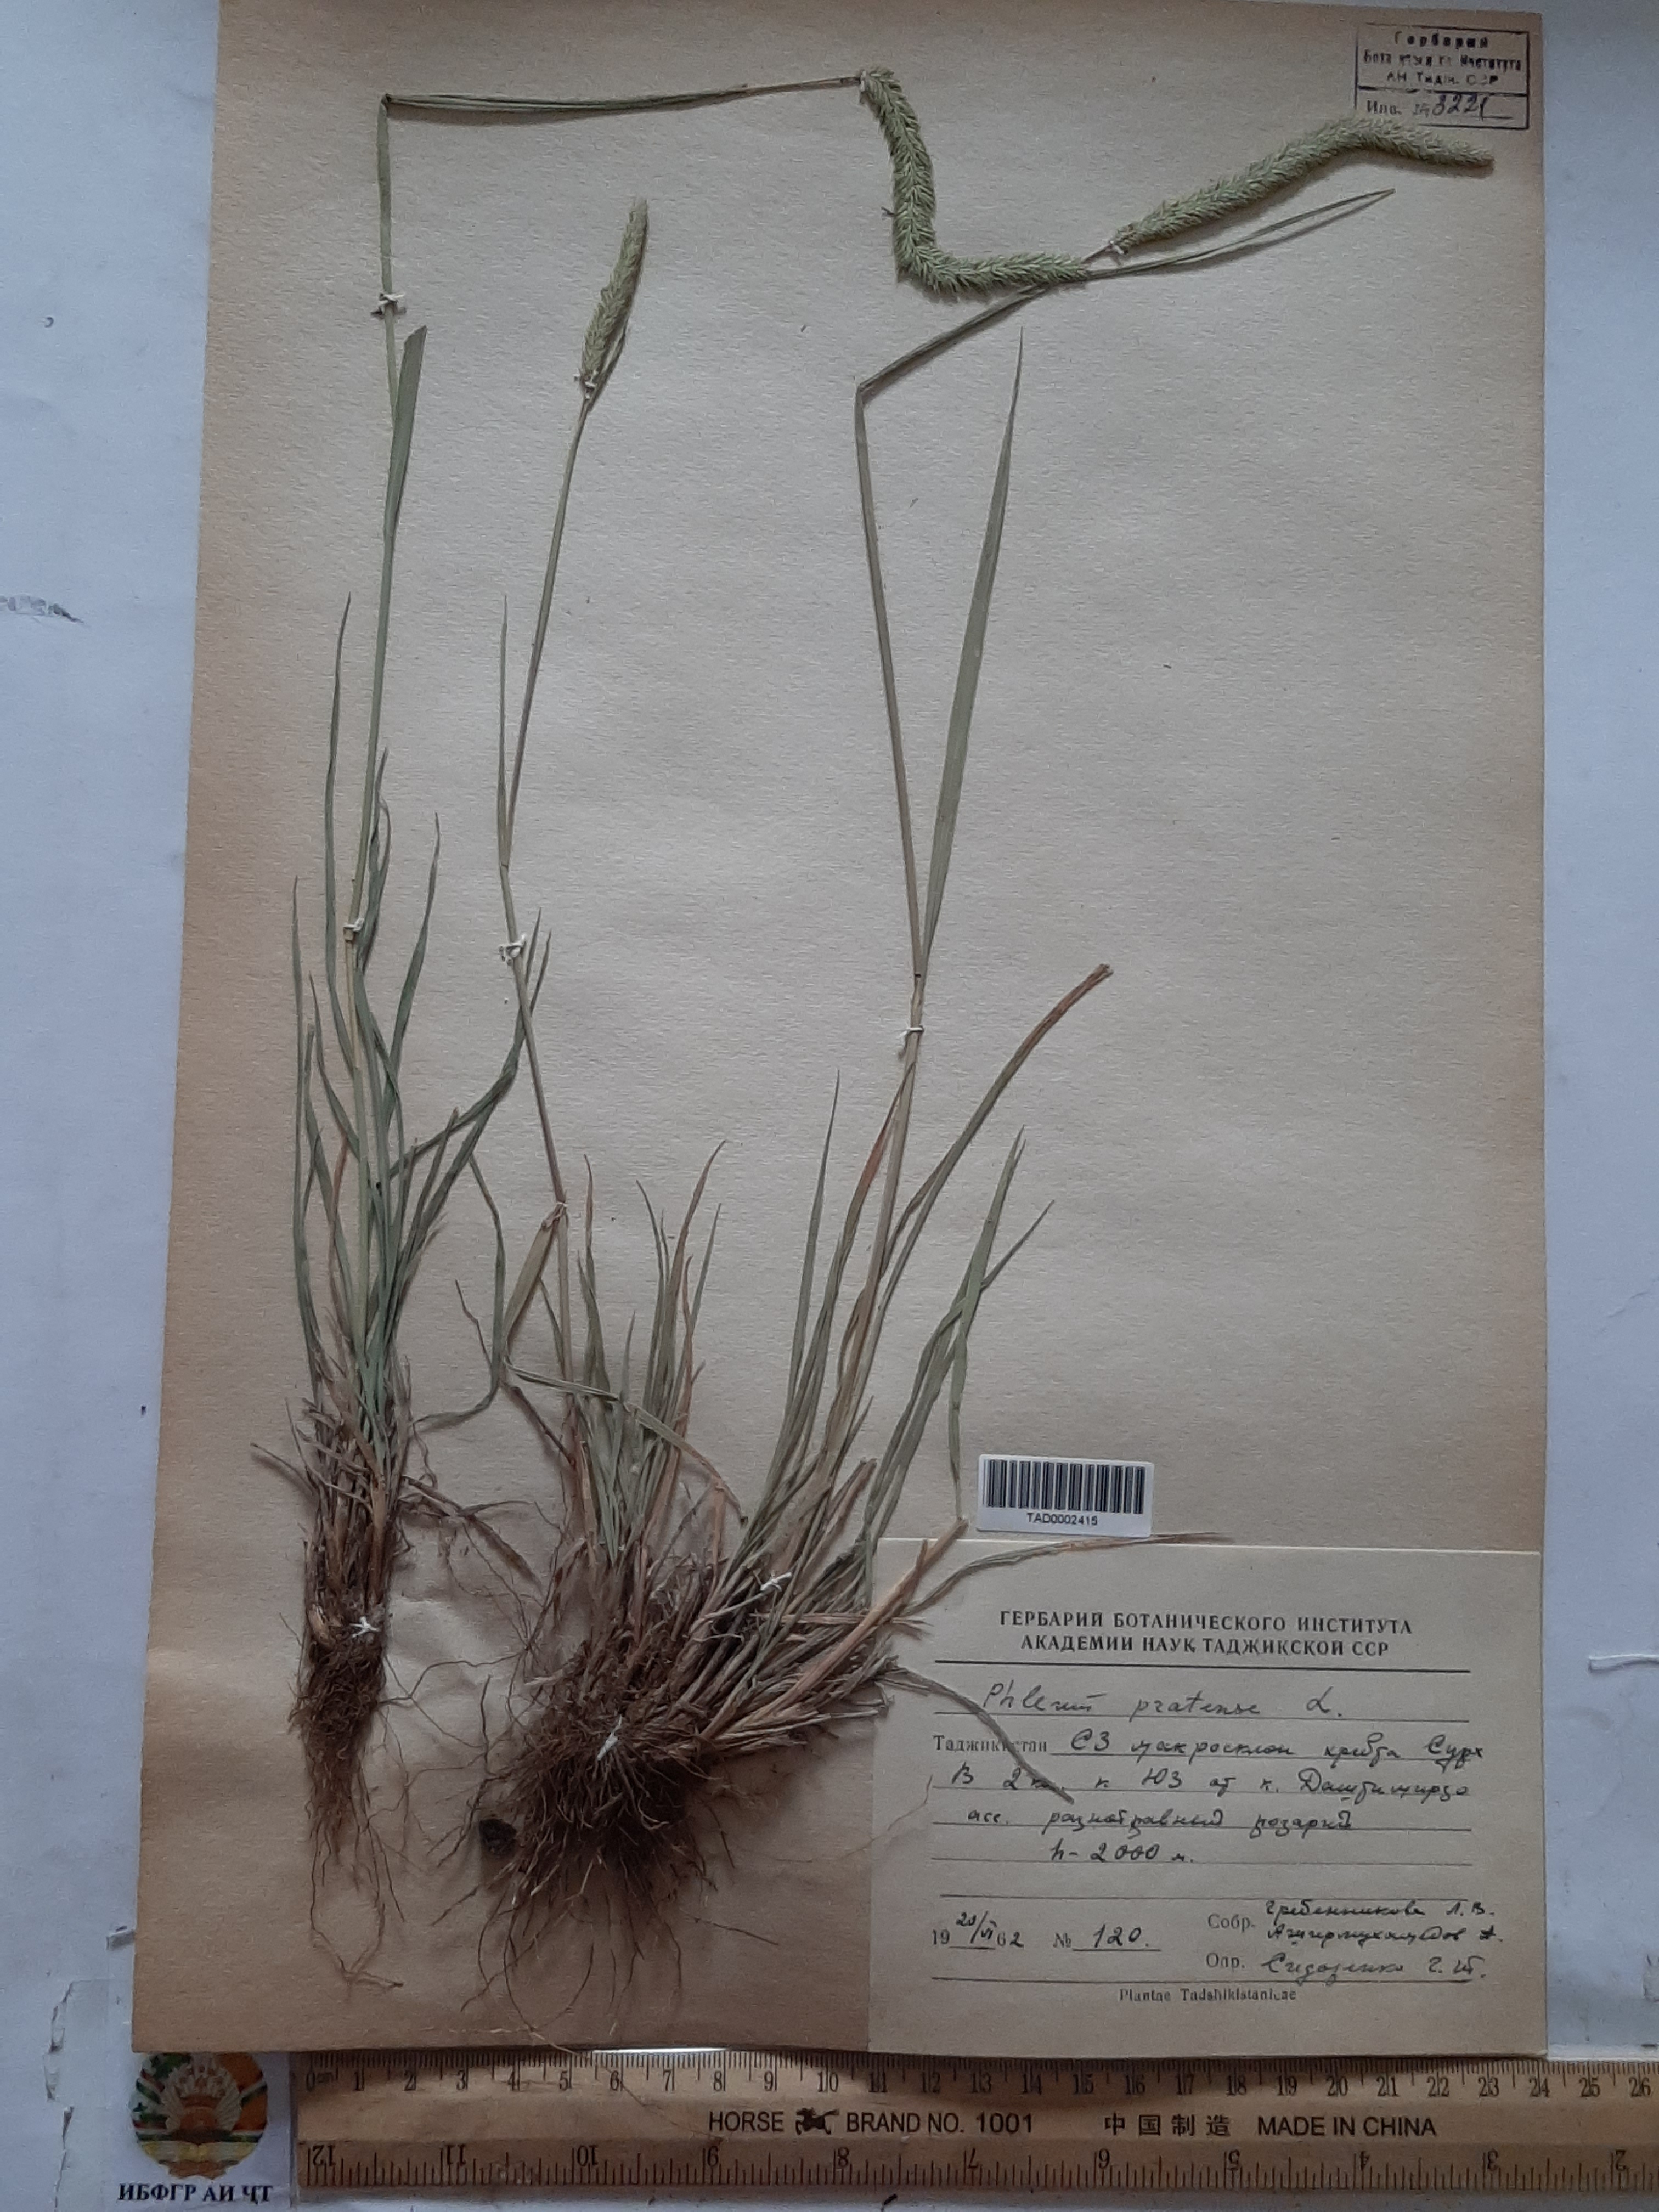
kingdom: Plantae
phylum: Tracheophyta
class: Liliopsida
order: Poales
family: Poaceae
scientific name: Poaceae
